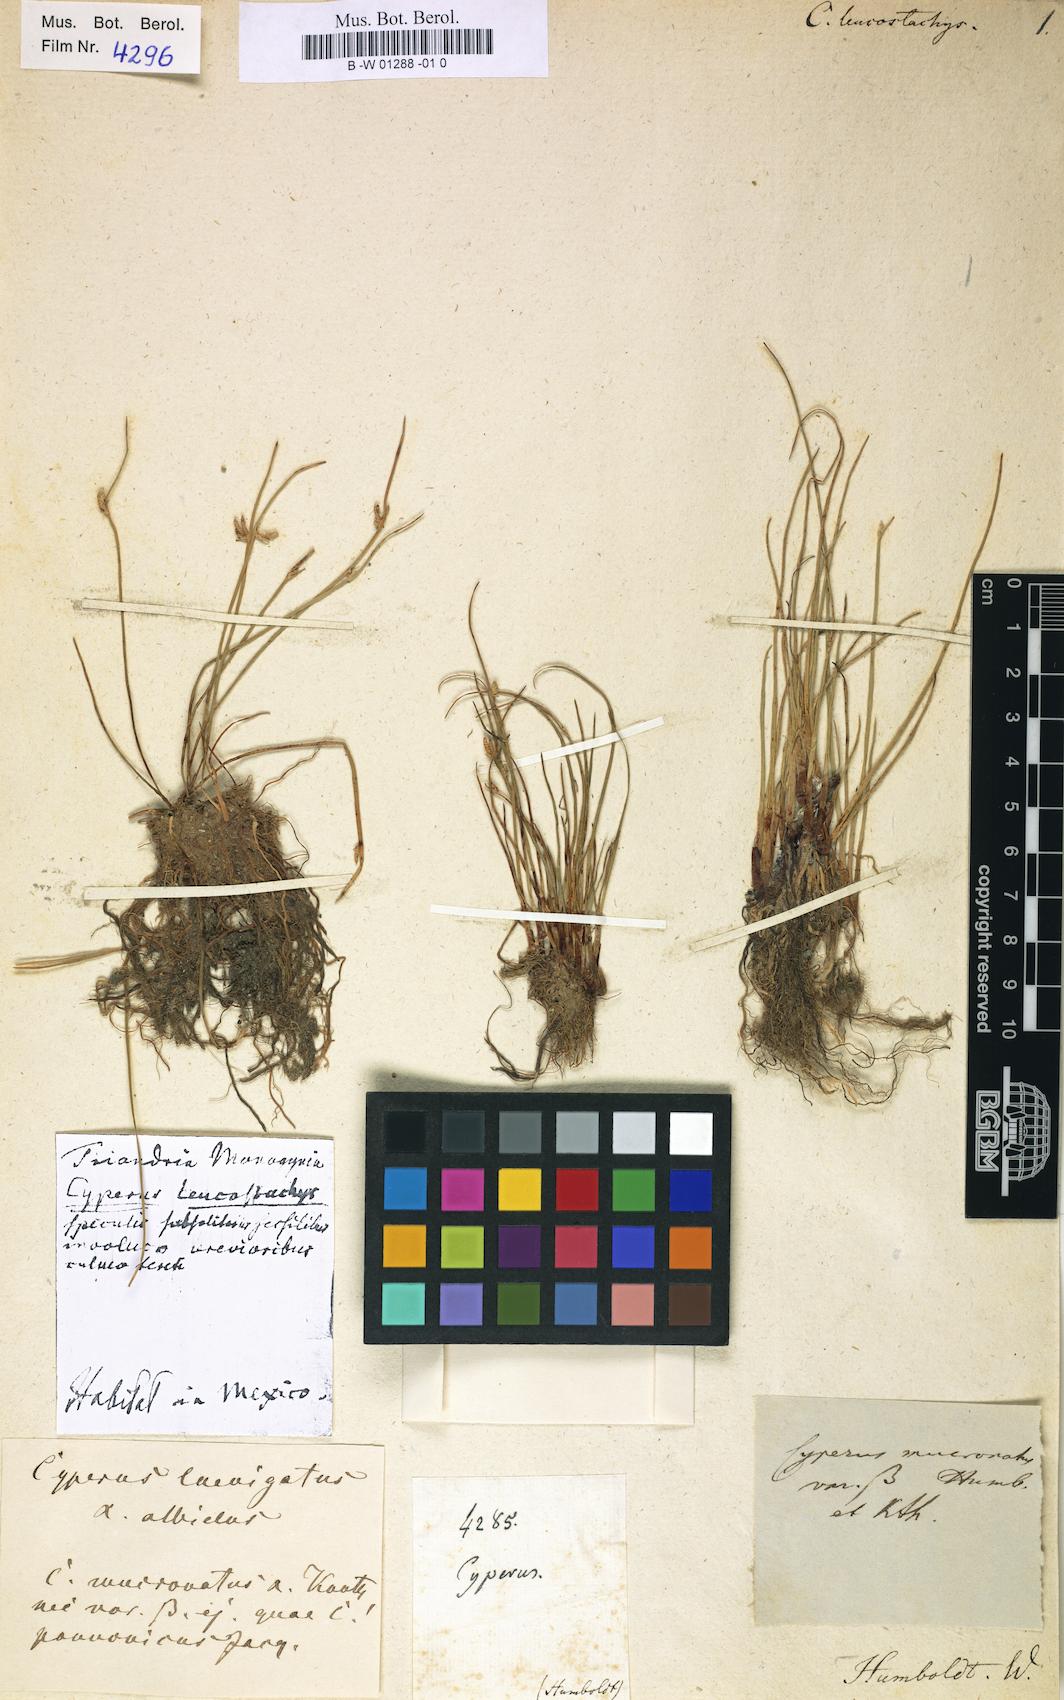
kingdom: Plantae
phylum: Tracheophyta
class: Liliopsida
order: Poales
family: Cyperaceae
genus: Cyperus
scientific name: Cyperus laevigatus
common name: Smooth flat sedge
